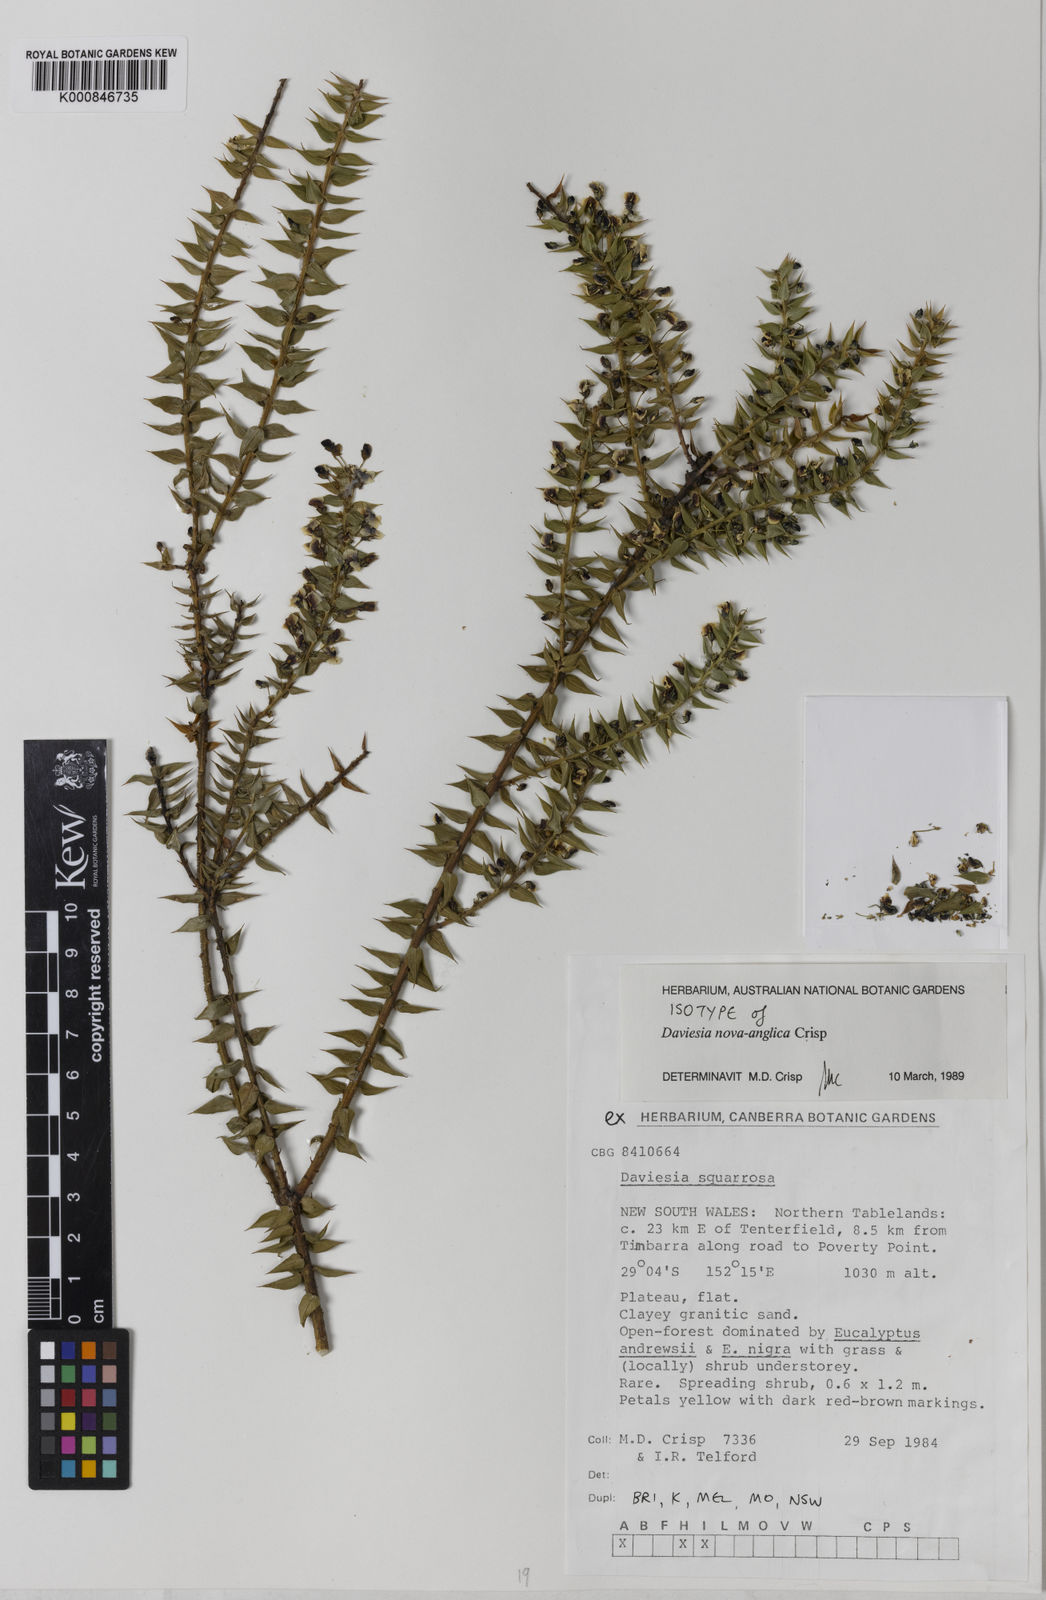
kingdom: Plantae
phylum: Tracheophyta
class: Magnoliopsida
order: Fabales
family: Fabaceae
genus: Daviesia
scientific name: Daviesia nova-anglica
